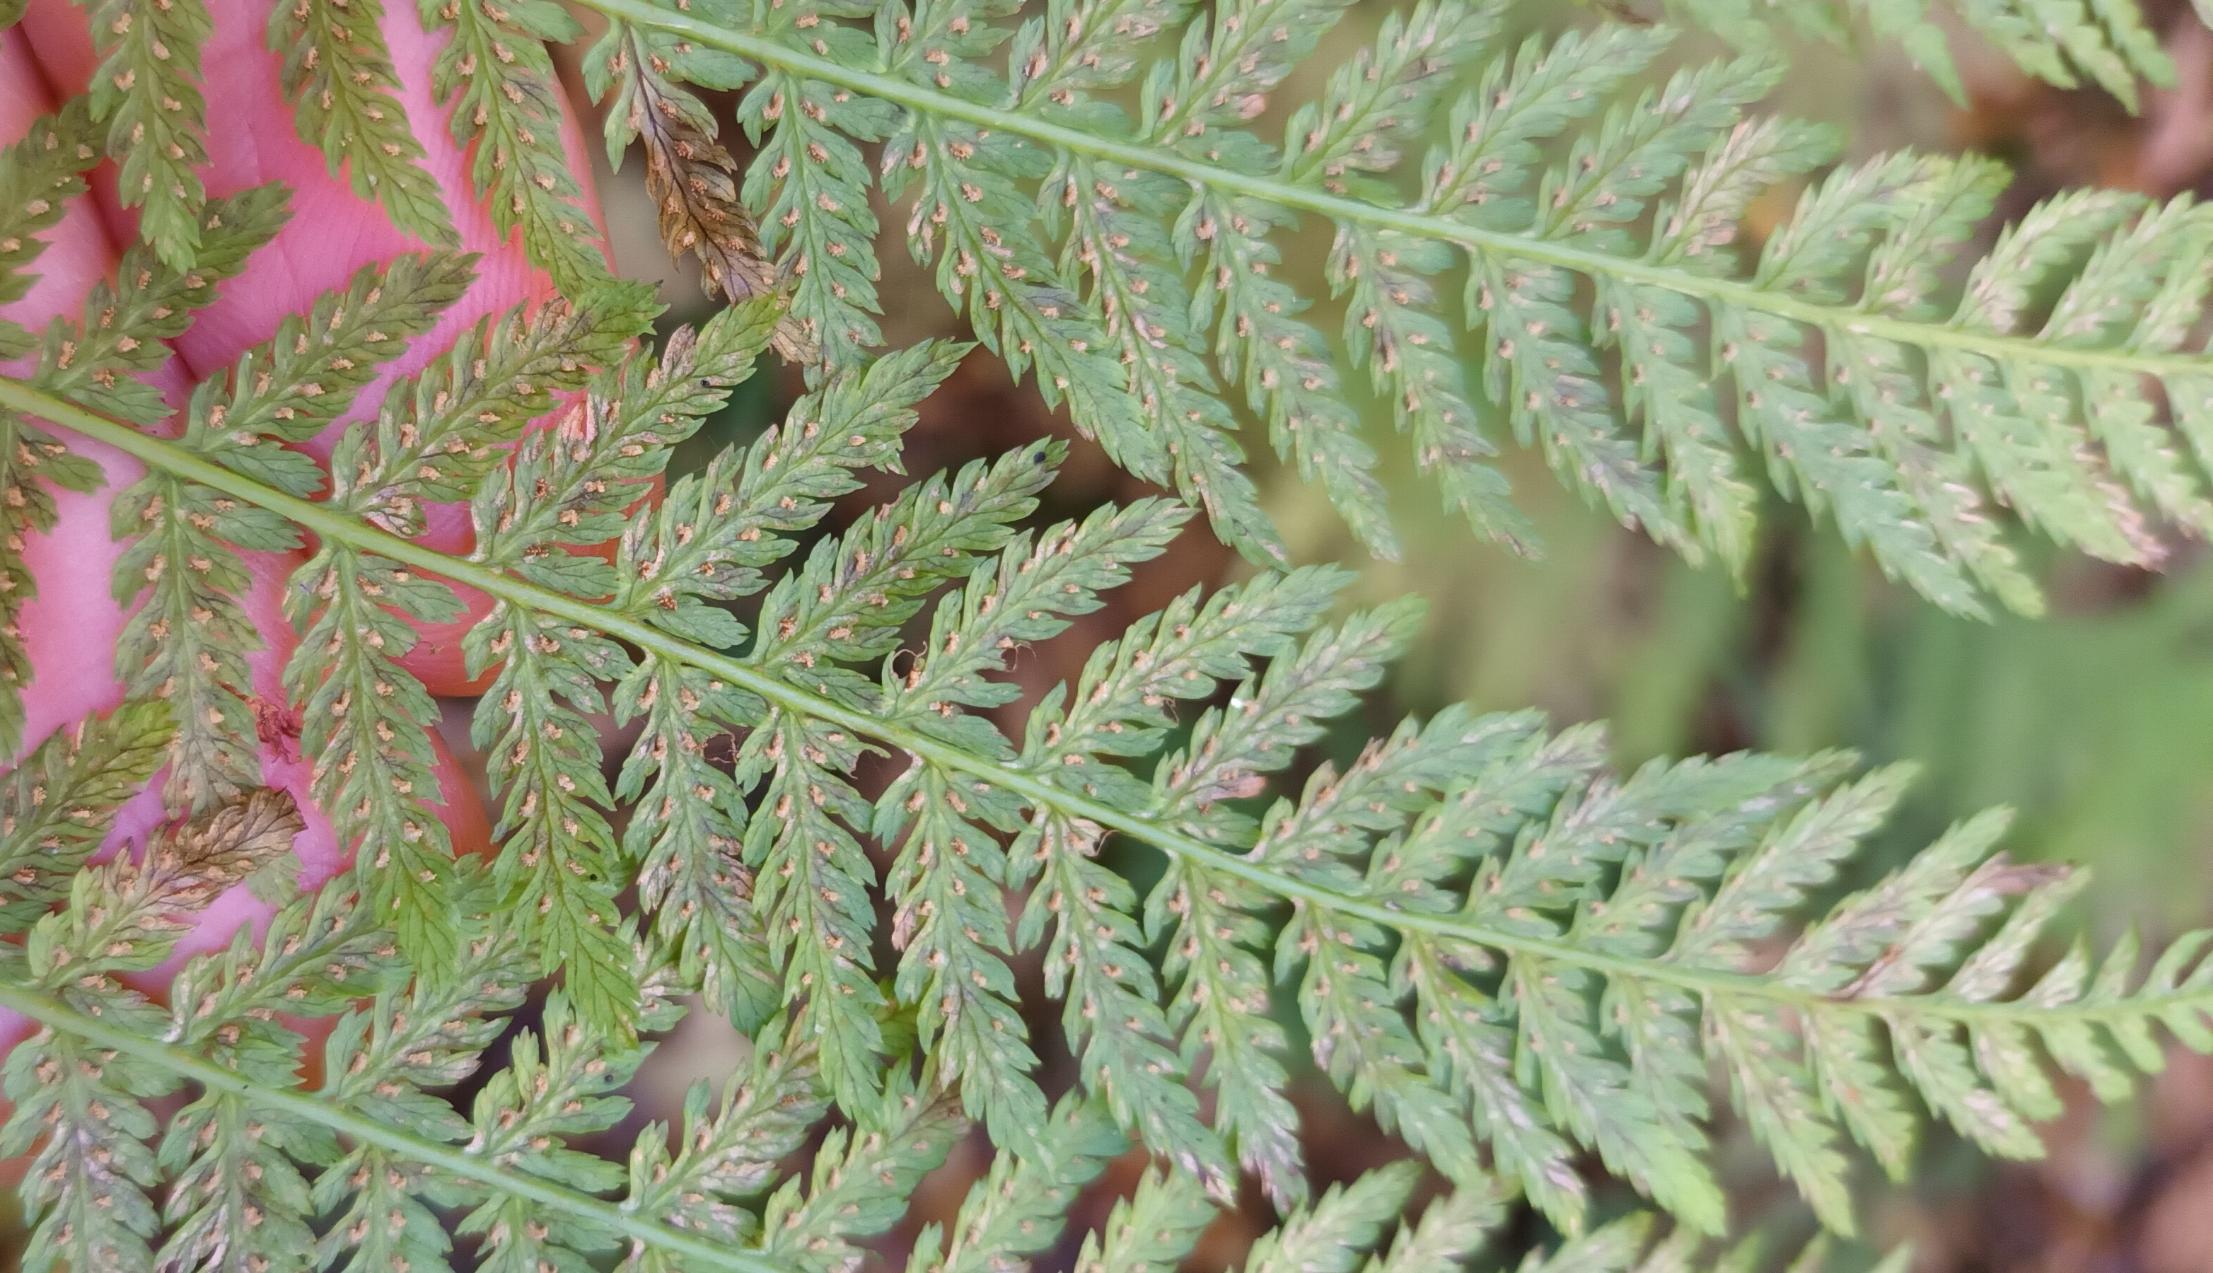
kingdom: Plantae
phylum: Tracheophyta
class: Polypodiopsida
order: Polypodiales
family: Athyriaceae
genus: Athyrium
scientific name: Athyrium filix-femina
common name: Fjerbregne
